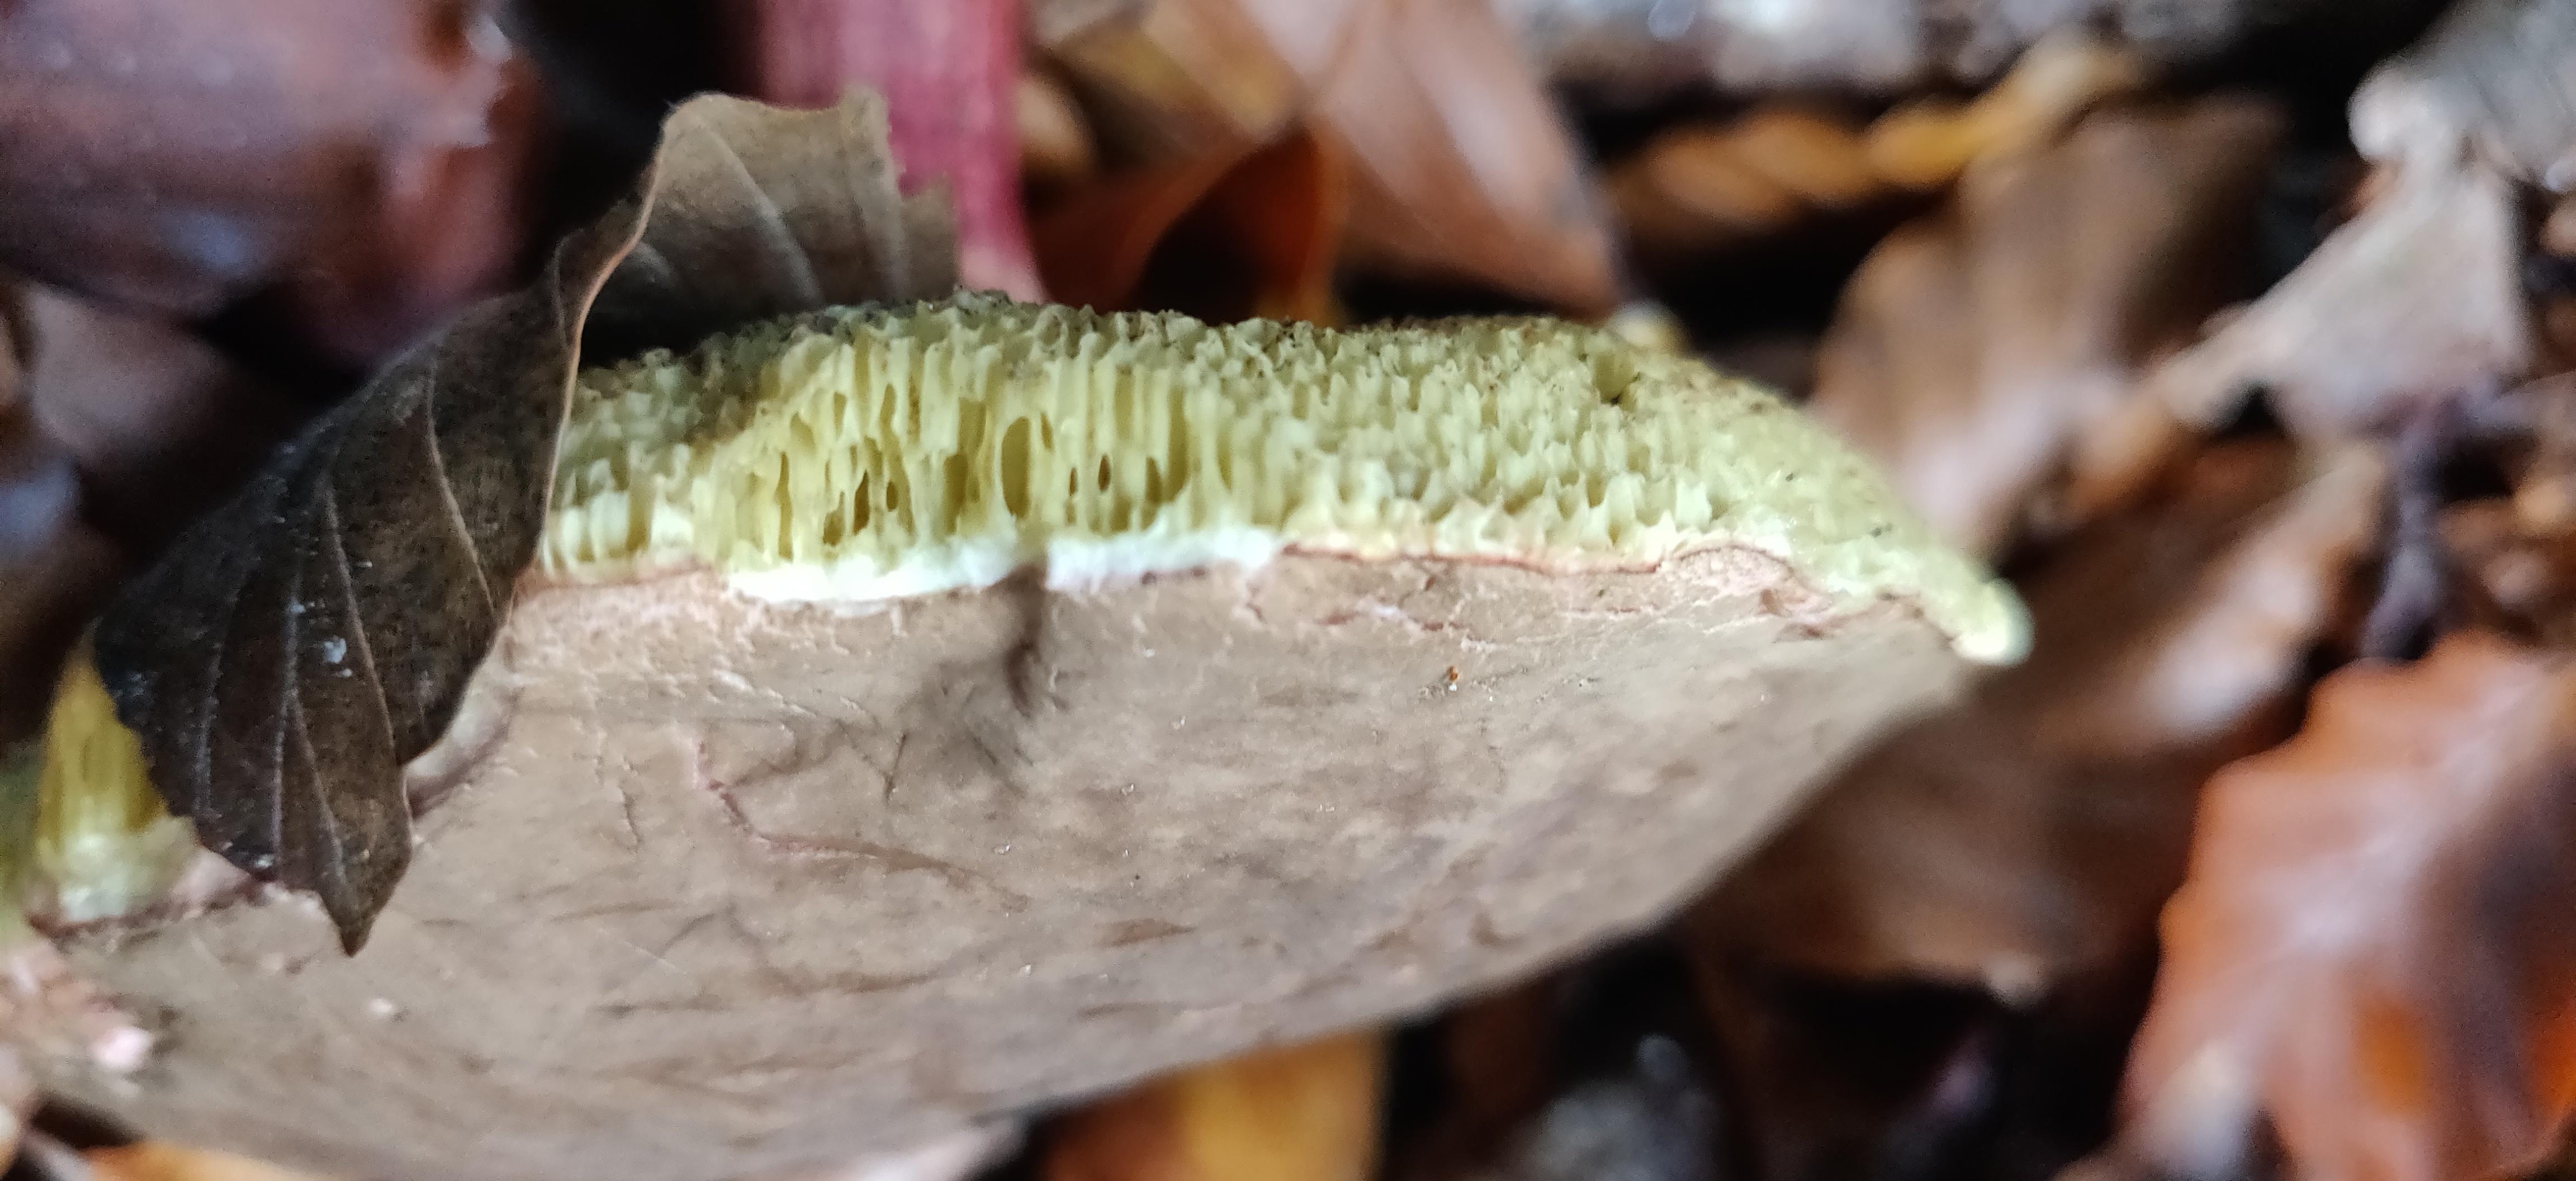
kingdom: Fungi
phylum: Basidiomycota
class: Agaricomycetes
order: Boletales
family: Boletaceae
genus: Xerocomellus
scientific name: Xerocomellus
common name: dværgrørhat
